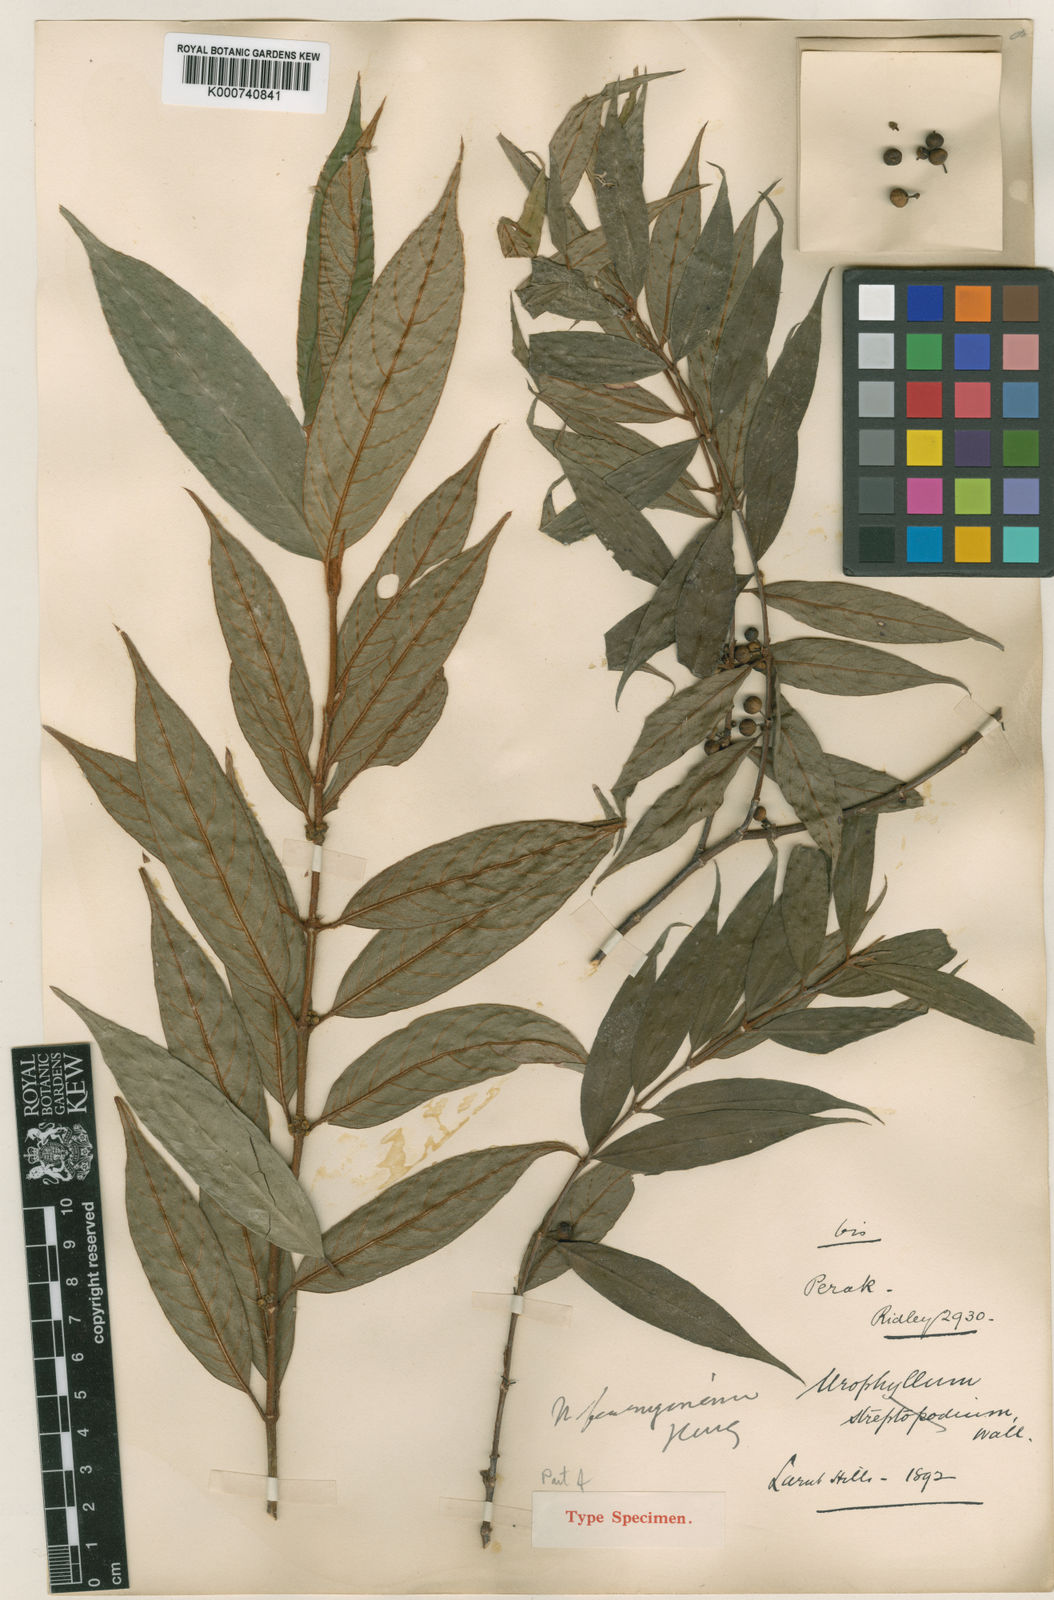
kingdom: Plantae
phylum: Tracheophyta
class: Magnoliopsida
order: Gentianales
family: Rubiaceae
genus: Urophyllum
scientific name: Urophyllum ferrugineum
